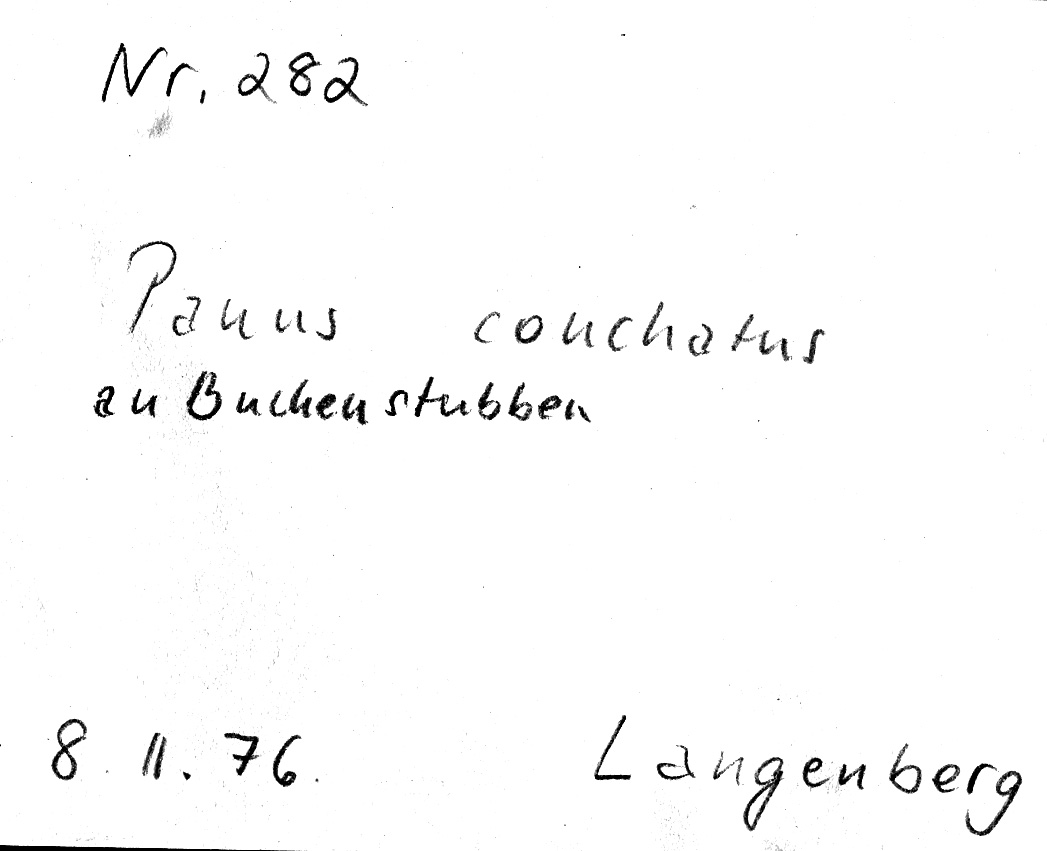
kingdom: Plantae
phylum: Tracheophyta
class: Magnoliopsida
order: Fagales
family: Fagaceae
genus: Fagus
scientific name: Fagus sylvatica
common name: Beech
